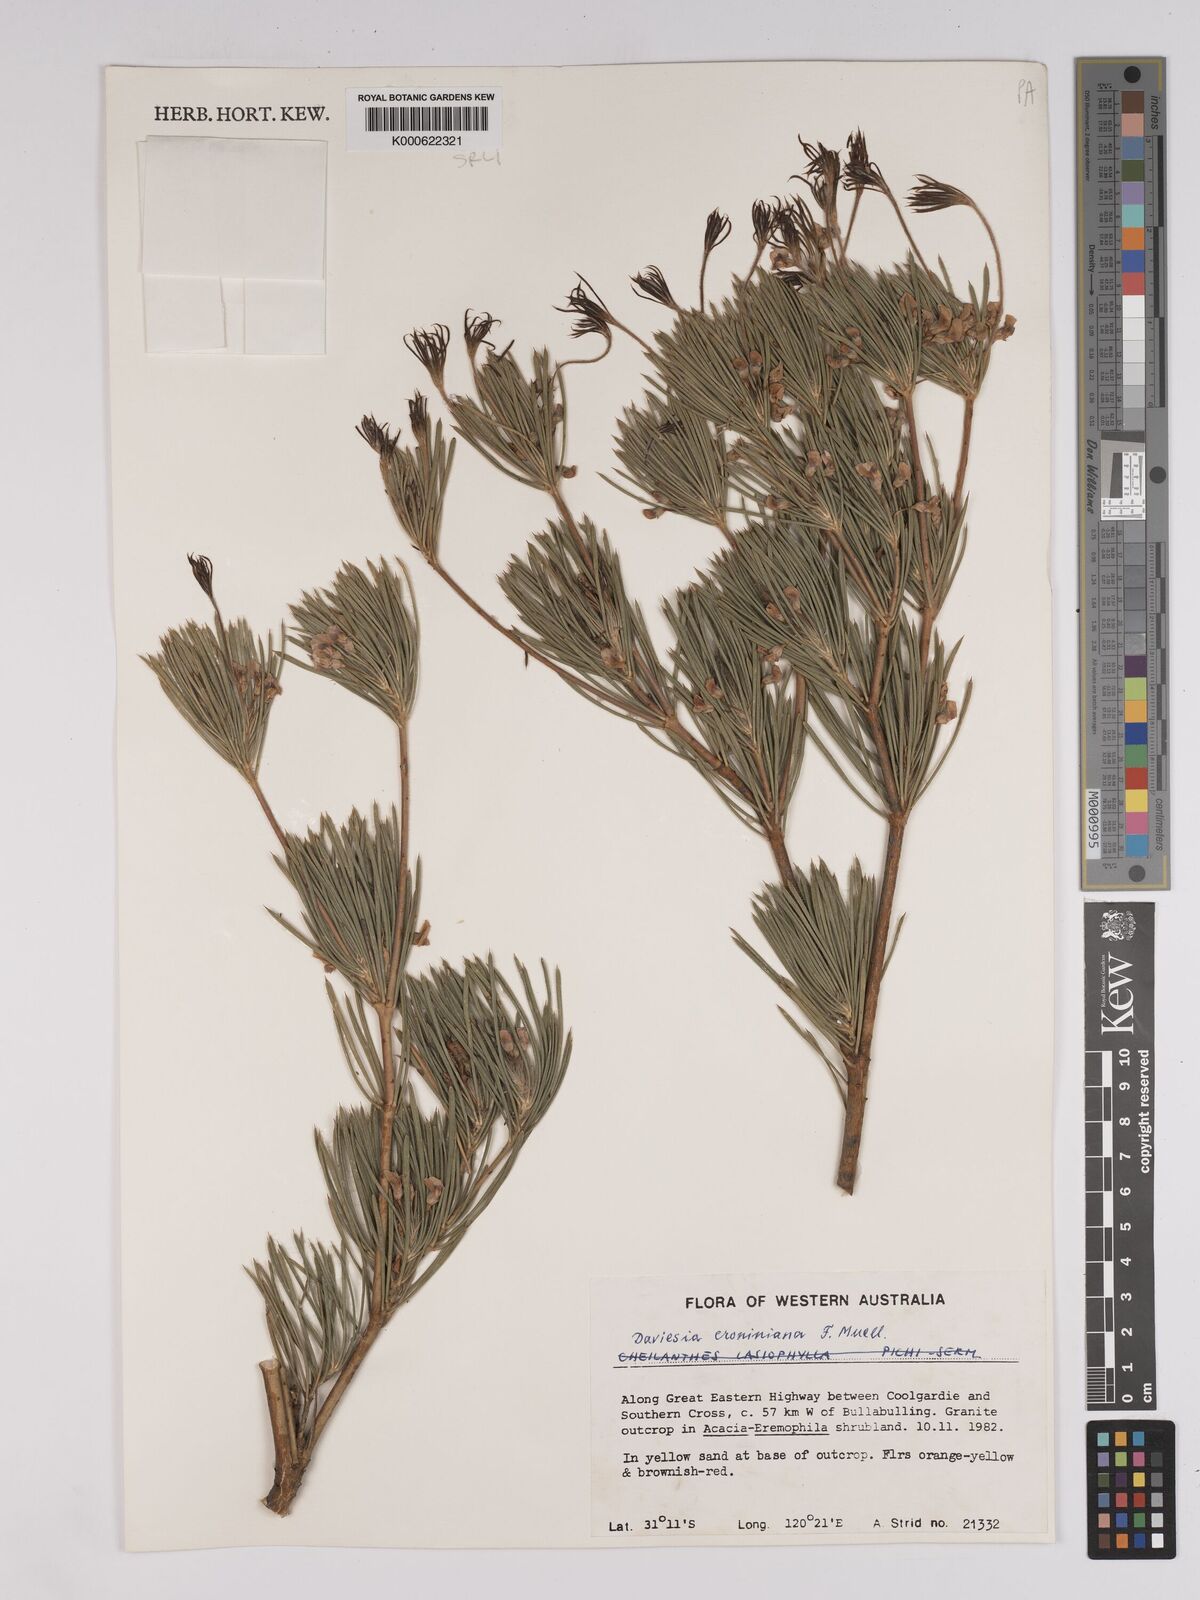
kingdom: Plantae
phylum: Tracheophyta
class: Magnoliopsida
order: Fabales
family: Fabaceae
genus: Daviesia
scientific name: Daviesia croniniana
